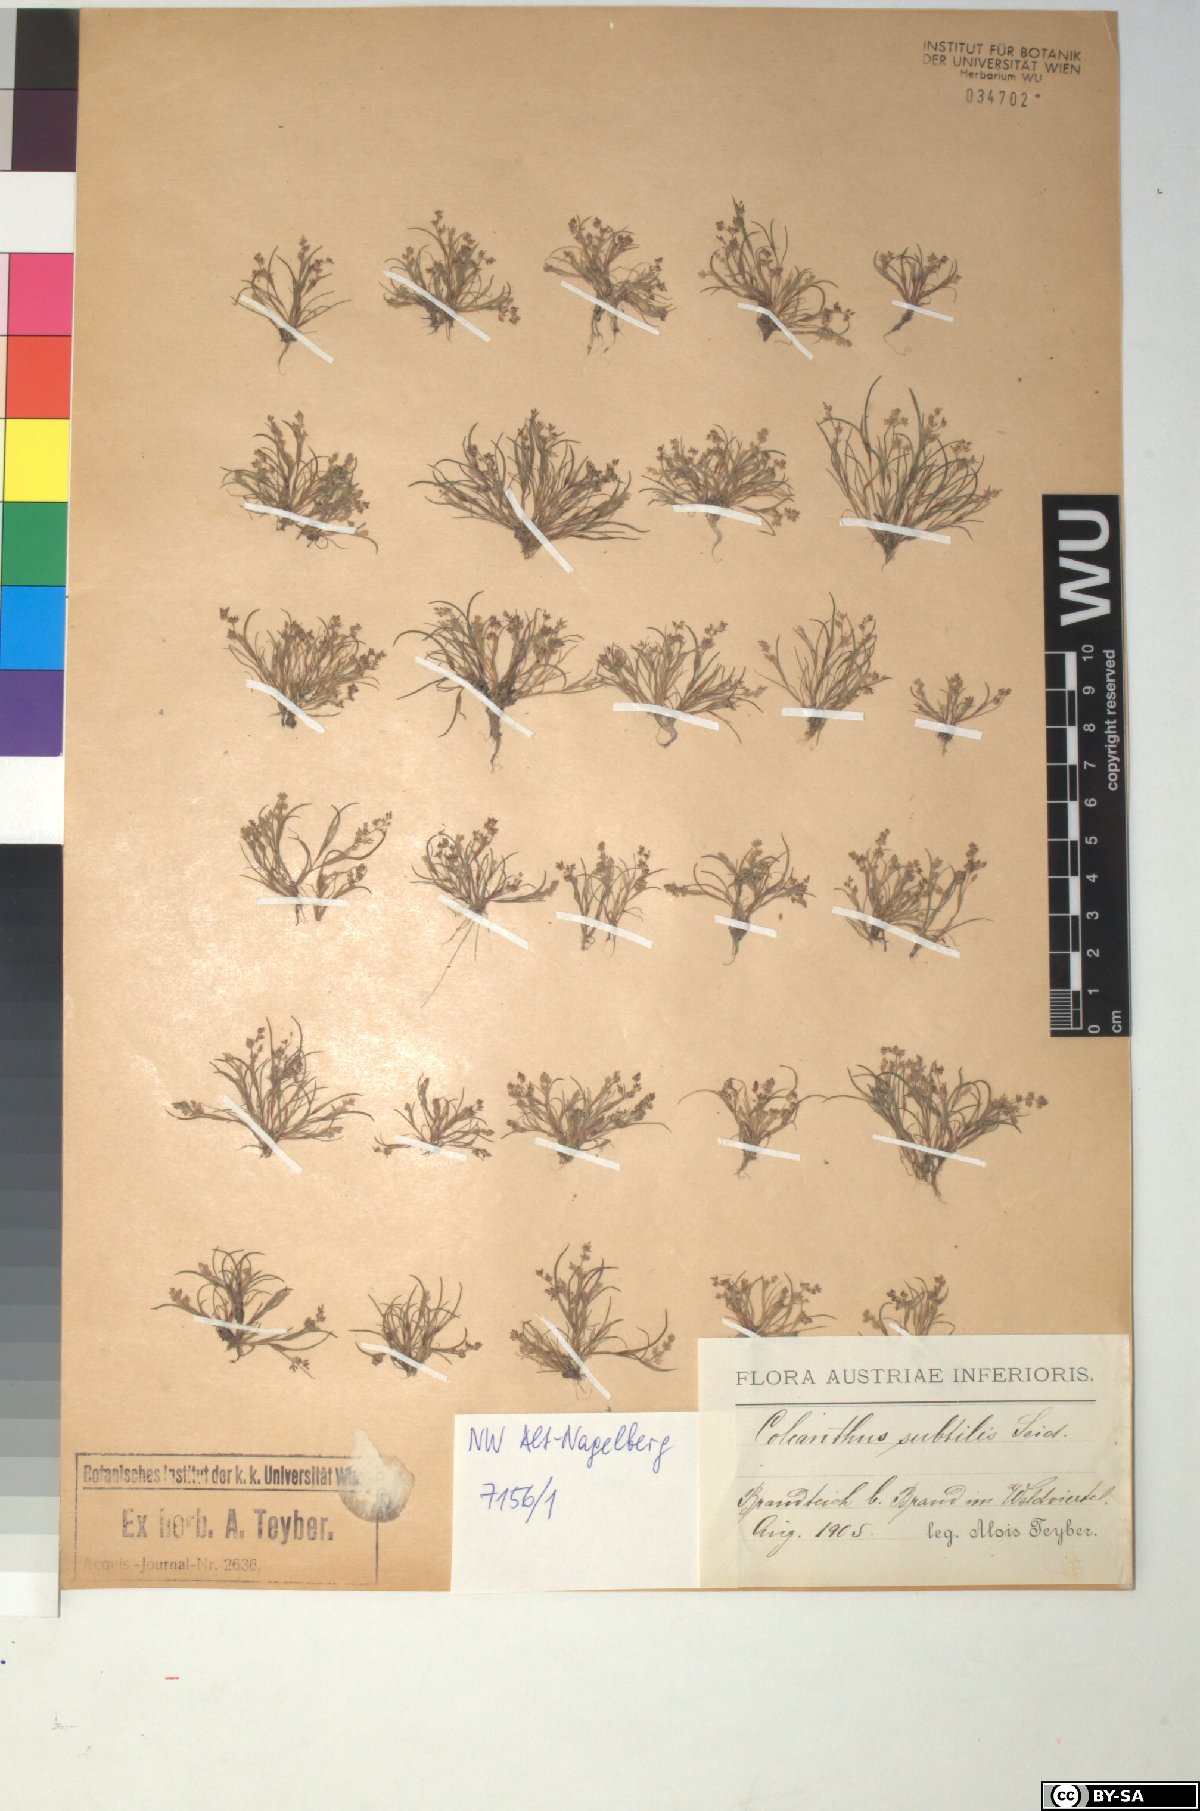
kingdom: Plantae
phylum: Tracheophyta
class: Liliopsida
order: Poales
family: Poaceae
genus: Coleanthus
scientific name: Coleanthus subtilis
